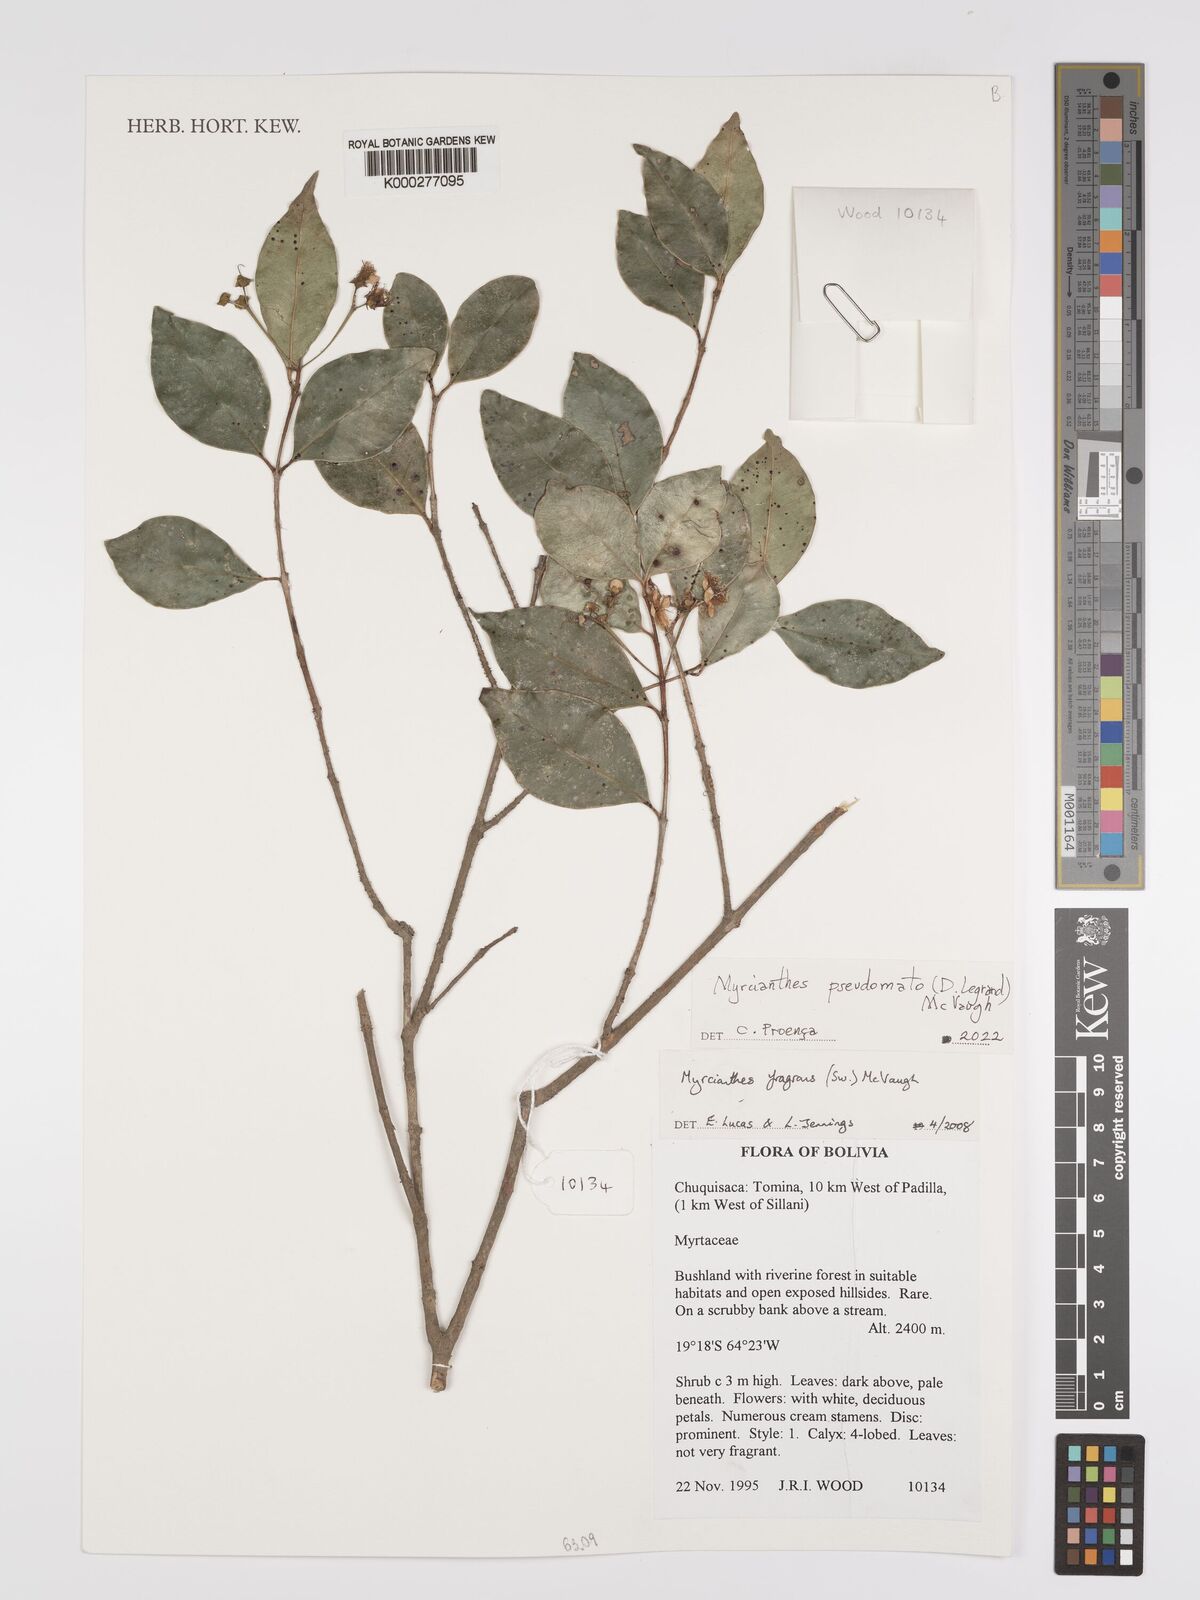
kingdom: Plantae
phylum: Tracheophyta
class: Magnoliopsida
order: Myrtales
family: Myrtaceae
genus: Myrcianthes
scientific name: Myrcianthes fragrans
